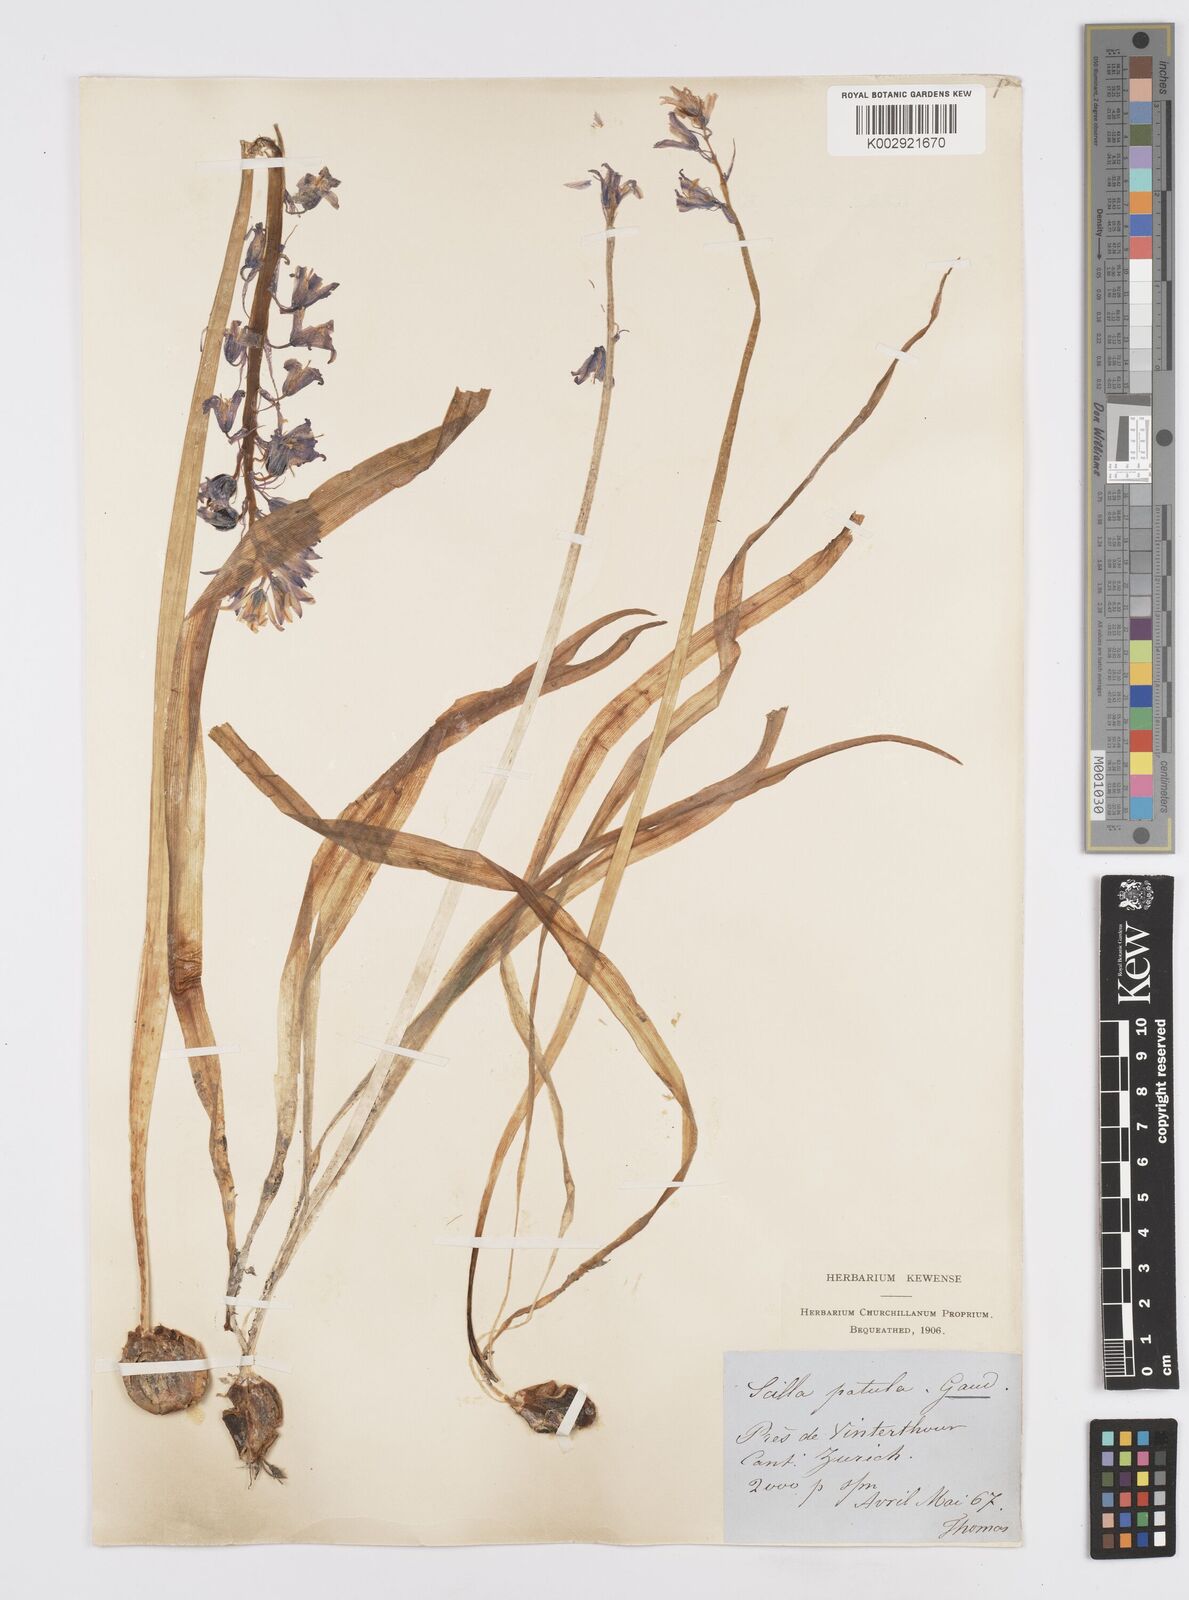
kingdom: Plantae
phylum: Tracheophyta
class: Liliopsida
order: Asparagales
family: Asparagaceae
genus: Hyacinthoides
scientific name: Hyacinthoides
